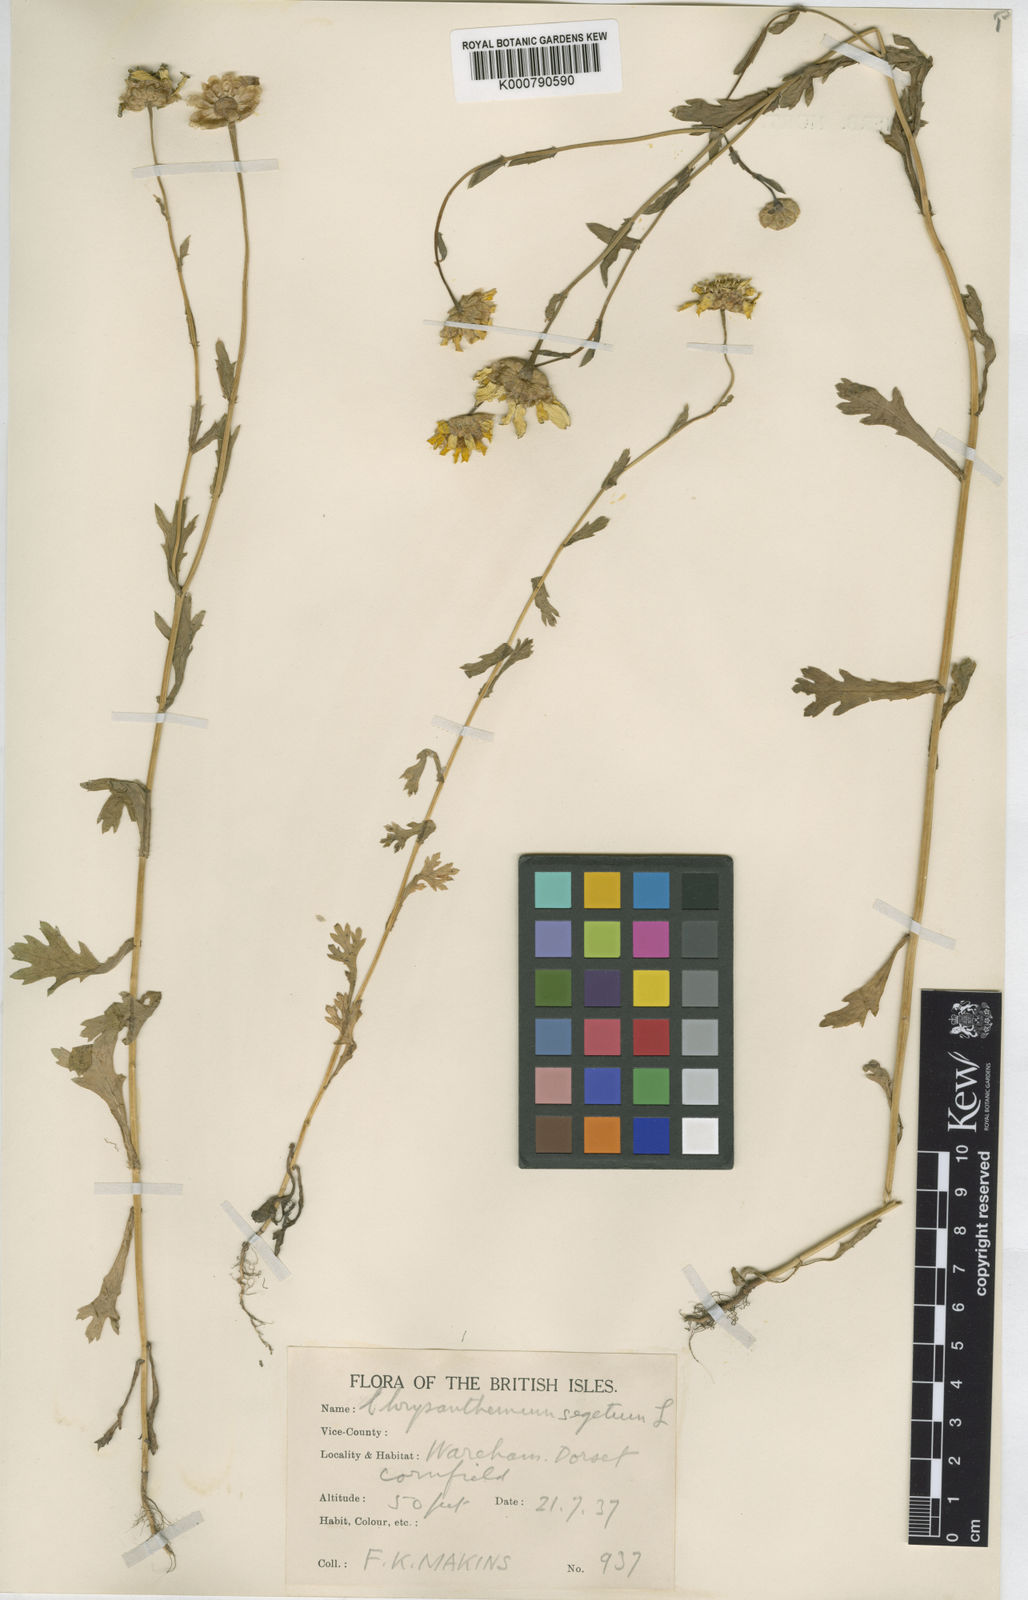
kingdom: Plantae
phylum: Tracheophyta
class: Magnoliopsida
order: Asterales
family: Asteraceae
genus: Glebionis
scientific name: Glebionis
